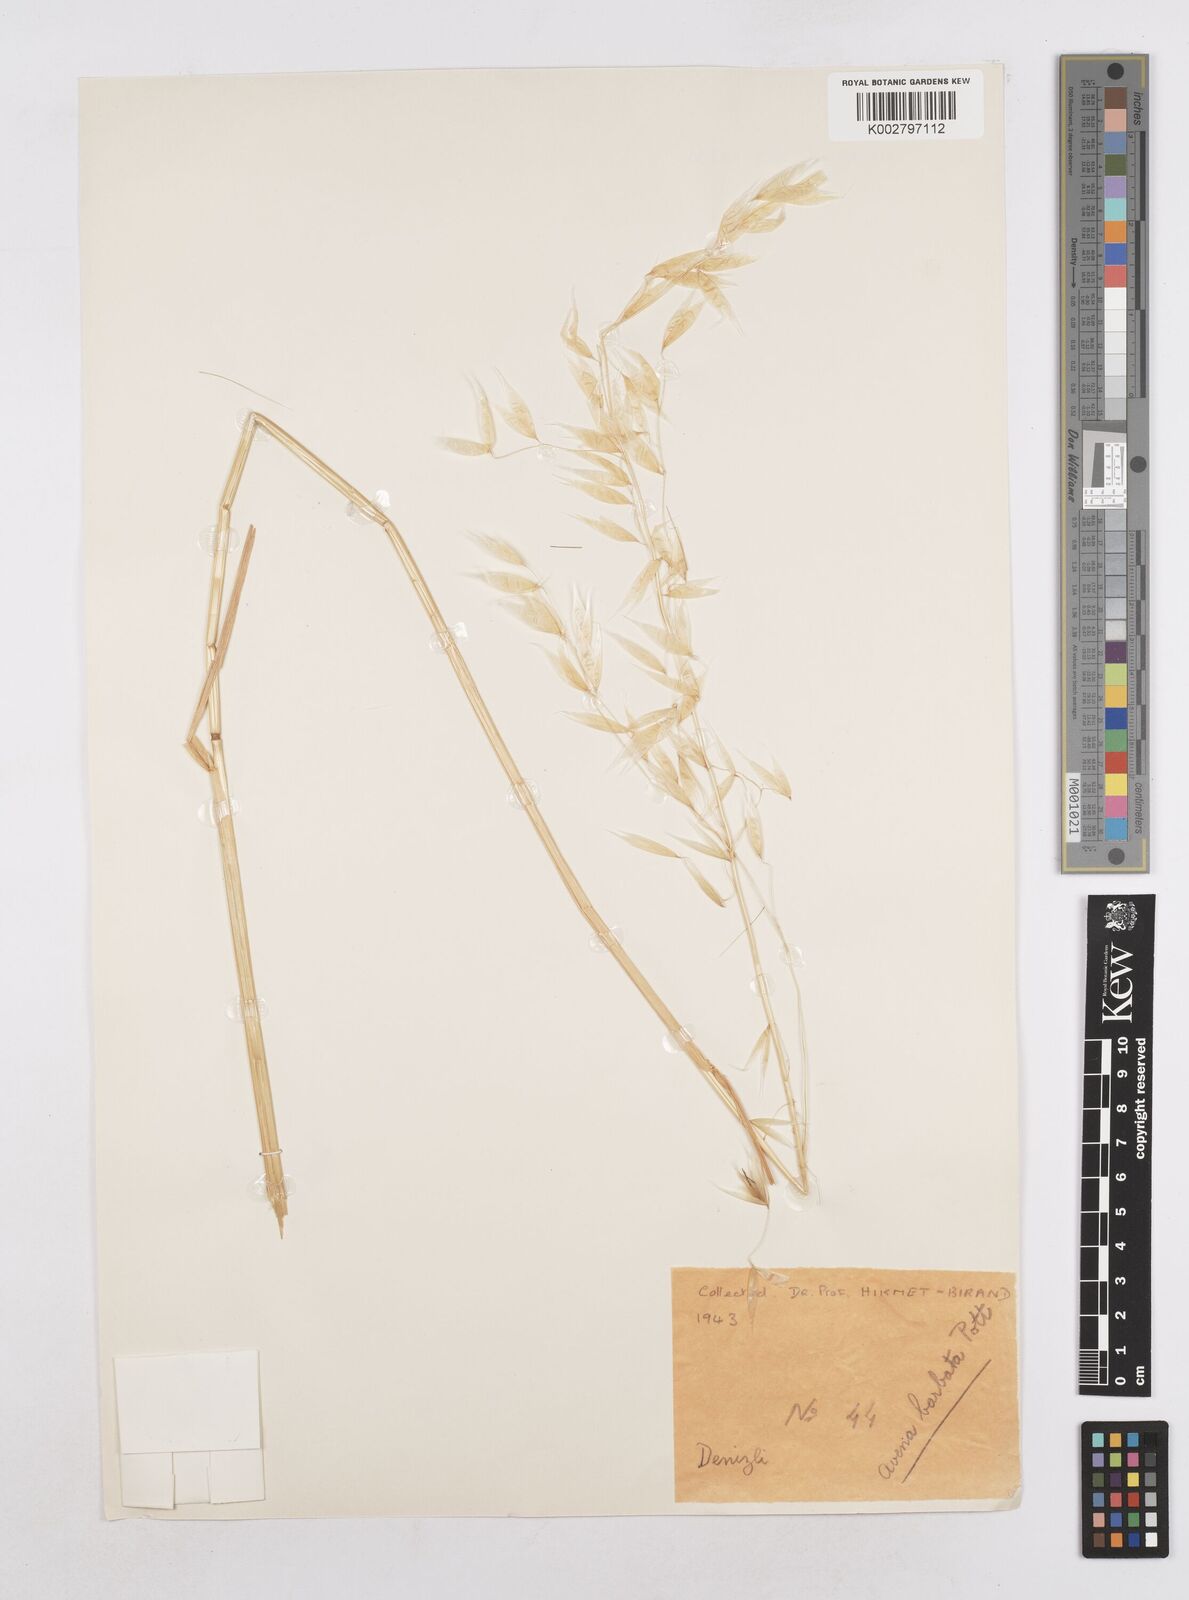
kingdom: Plantae
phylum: Tracheophyta
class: Liliopsida
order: Poales
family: Poaceae
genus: Avena
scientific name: Avena
